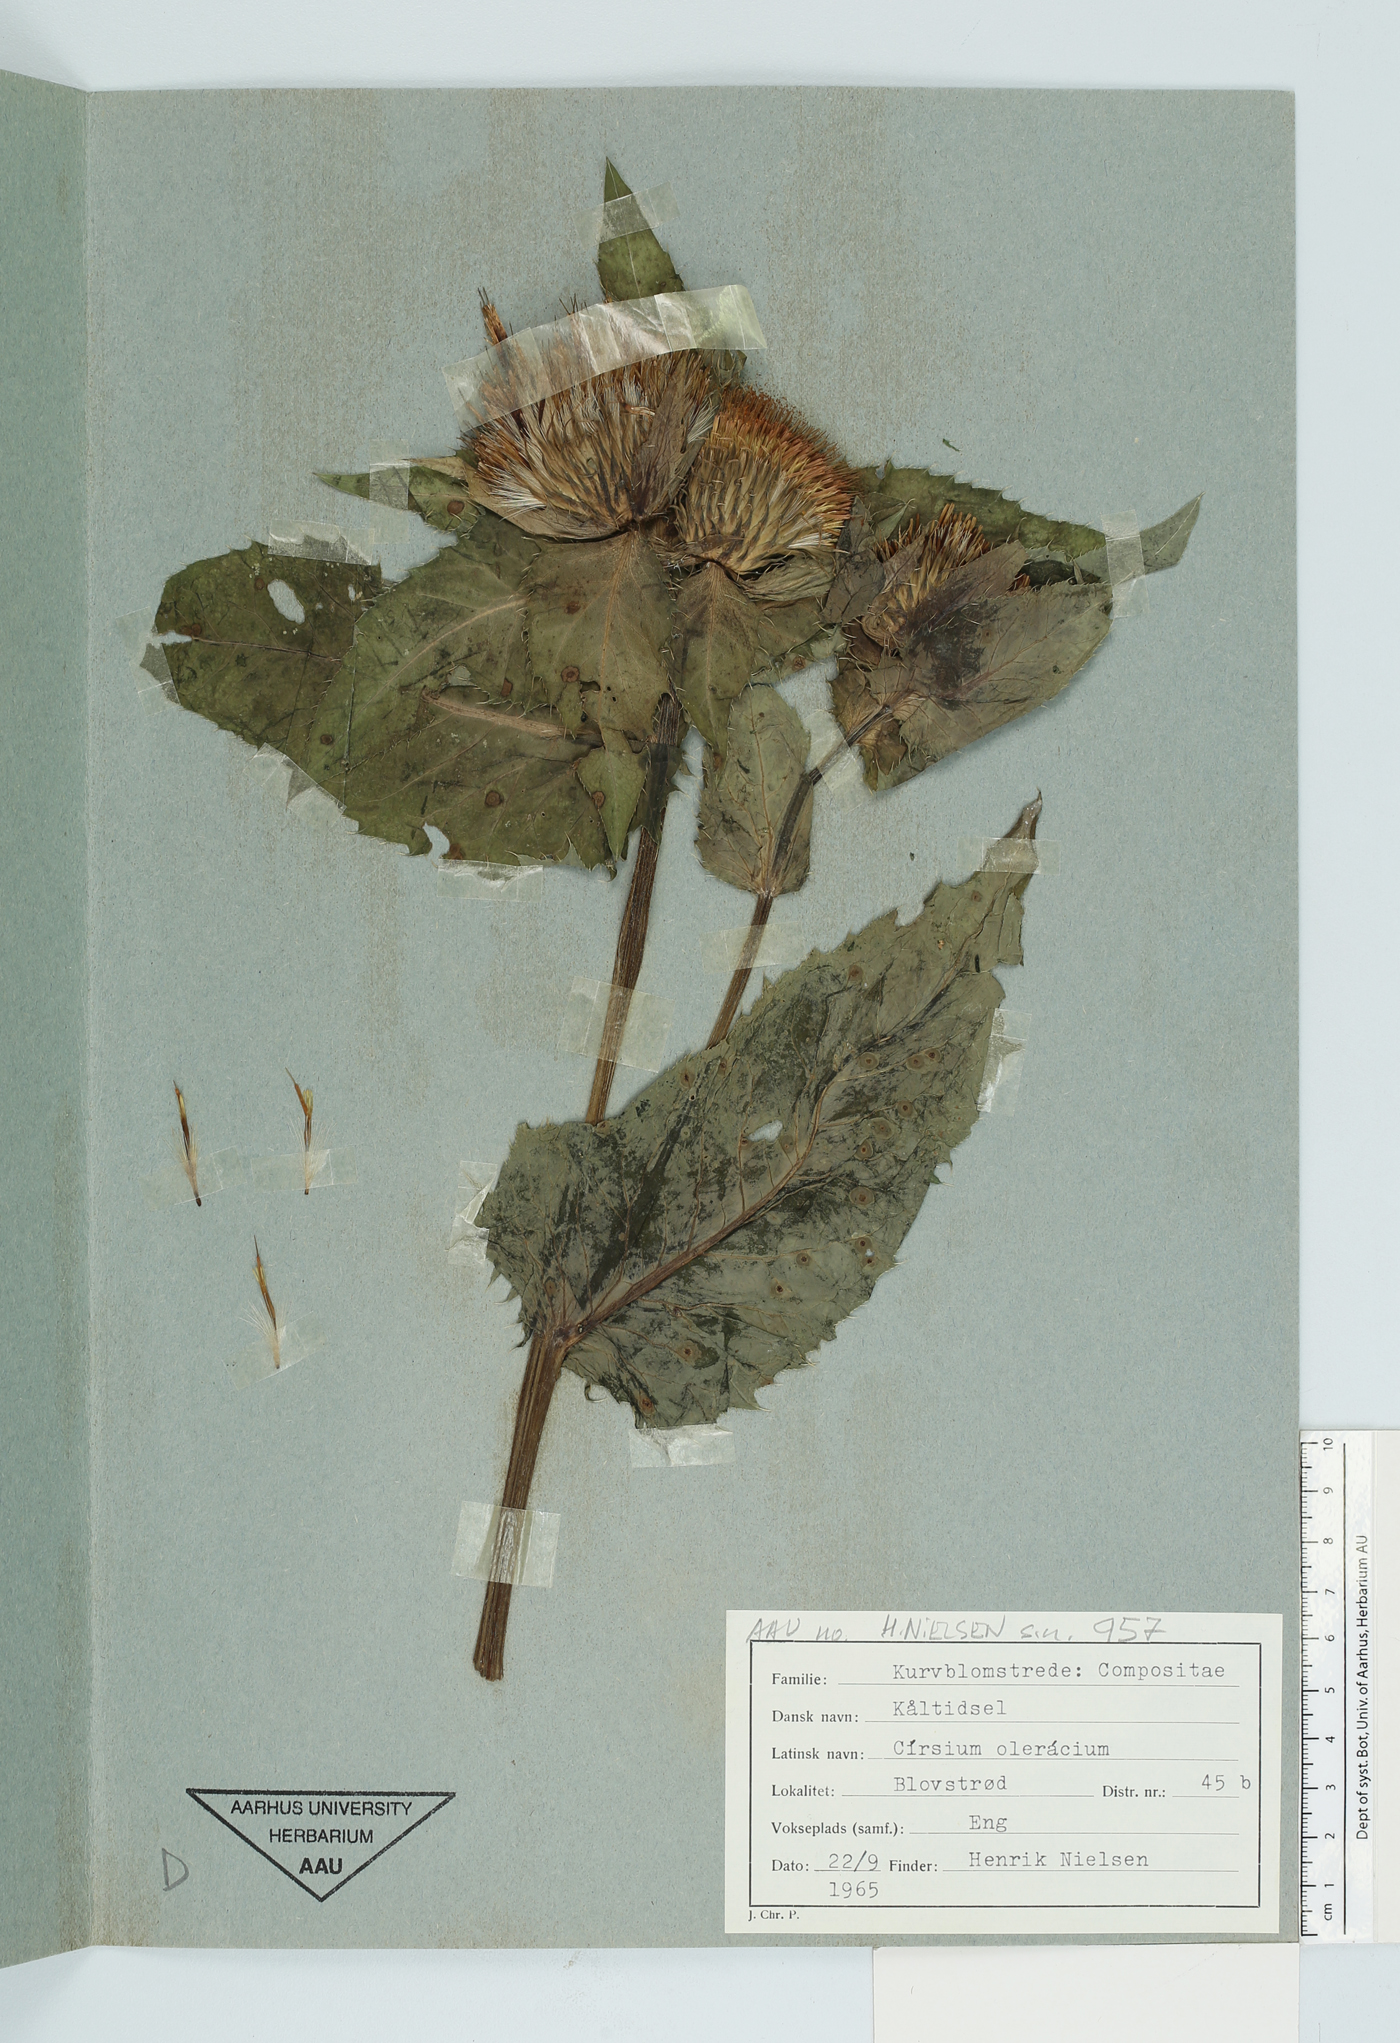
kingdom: Plantae
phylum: Tracheophyta
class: Magnoliopsida
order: Asterales
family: Asteraceae
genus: Cirsium
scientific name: Cirsium oleraceum
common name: Cabbage thistle
